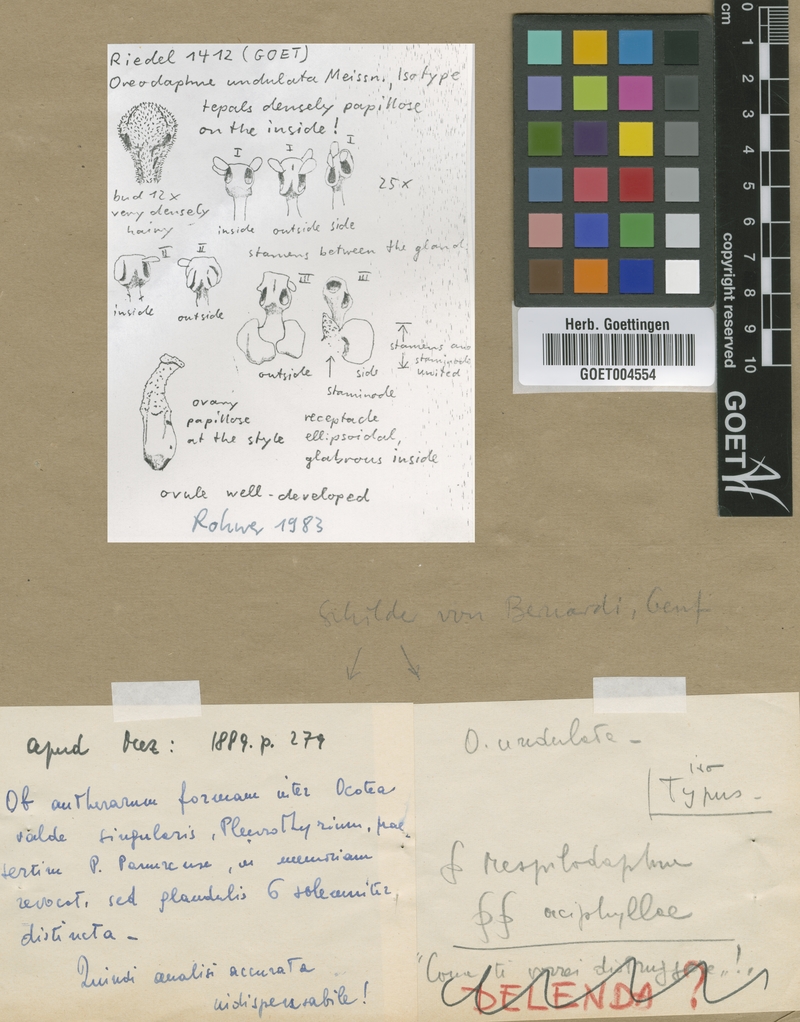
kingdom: Plantae
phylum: Tracheophyta
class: Magnoliopsida
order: Laurales
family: Lauraceae
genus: Pleurothyrium
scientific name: Pleurothyrium undulatum
